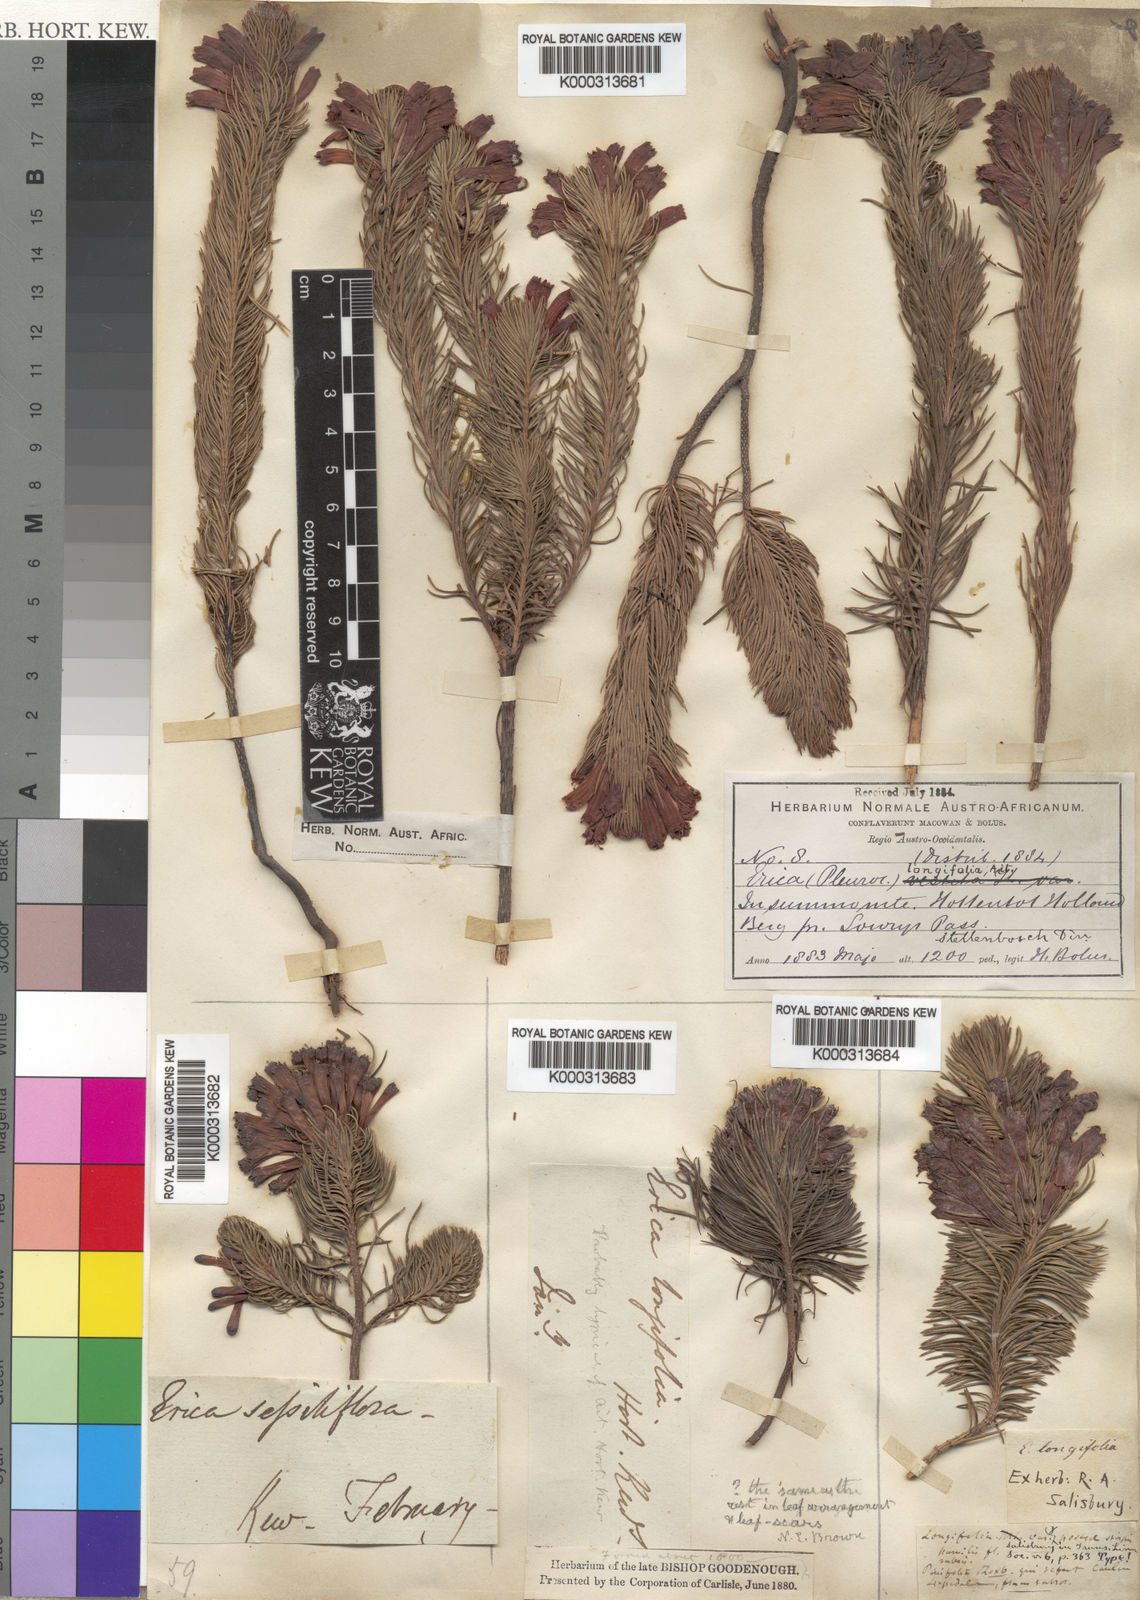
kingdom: Plantae
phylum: Tracheophyta
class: Magnoliopsida
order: Ericales
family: Ericaceae
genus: Erica
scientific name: Erica viscaria
